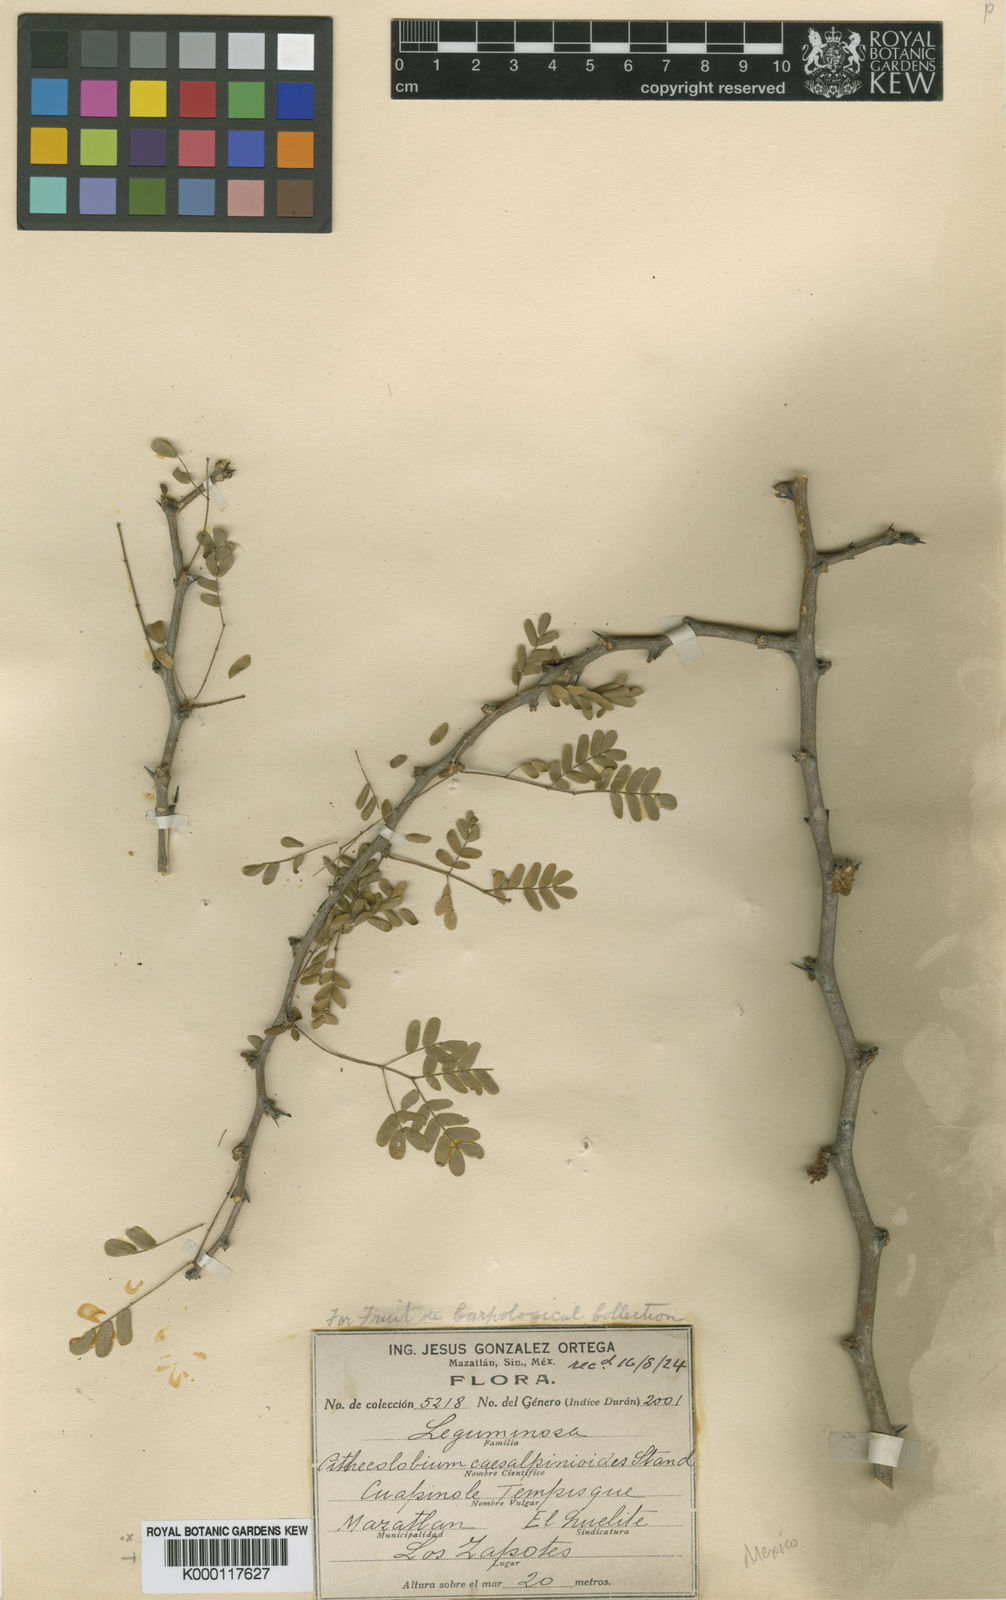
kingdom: Plantae
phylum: Tracheophyta
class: Magnoliopsida
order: Fabales
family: Fabaceae
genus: Chloroleucon
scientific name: Chloroleucon
